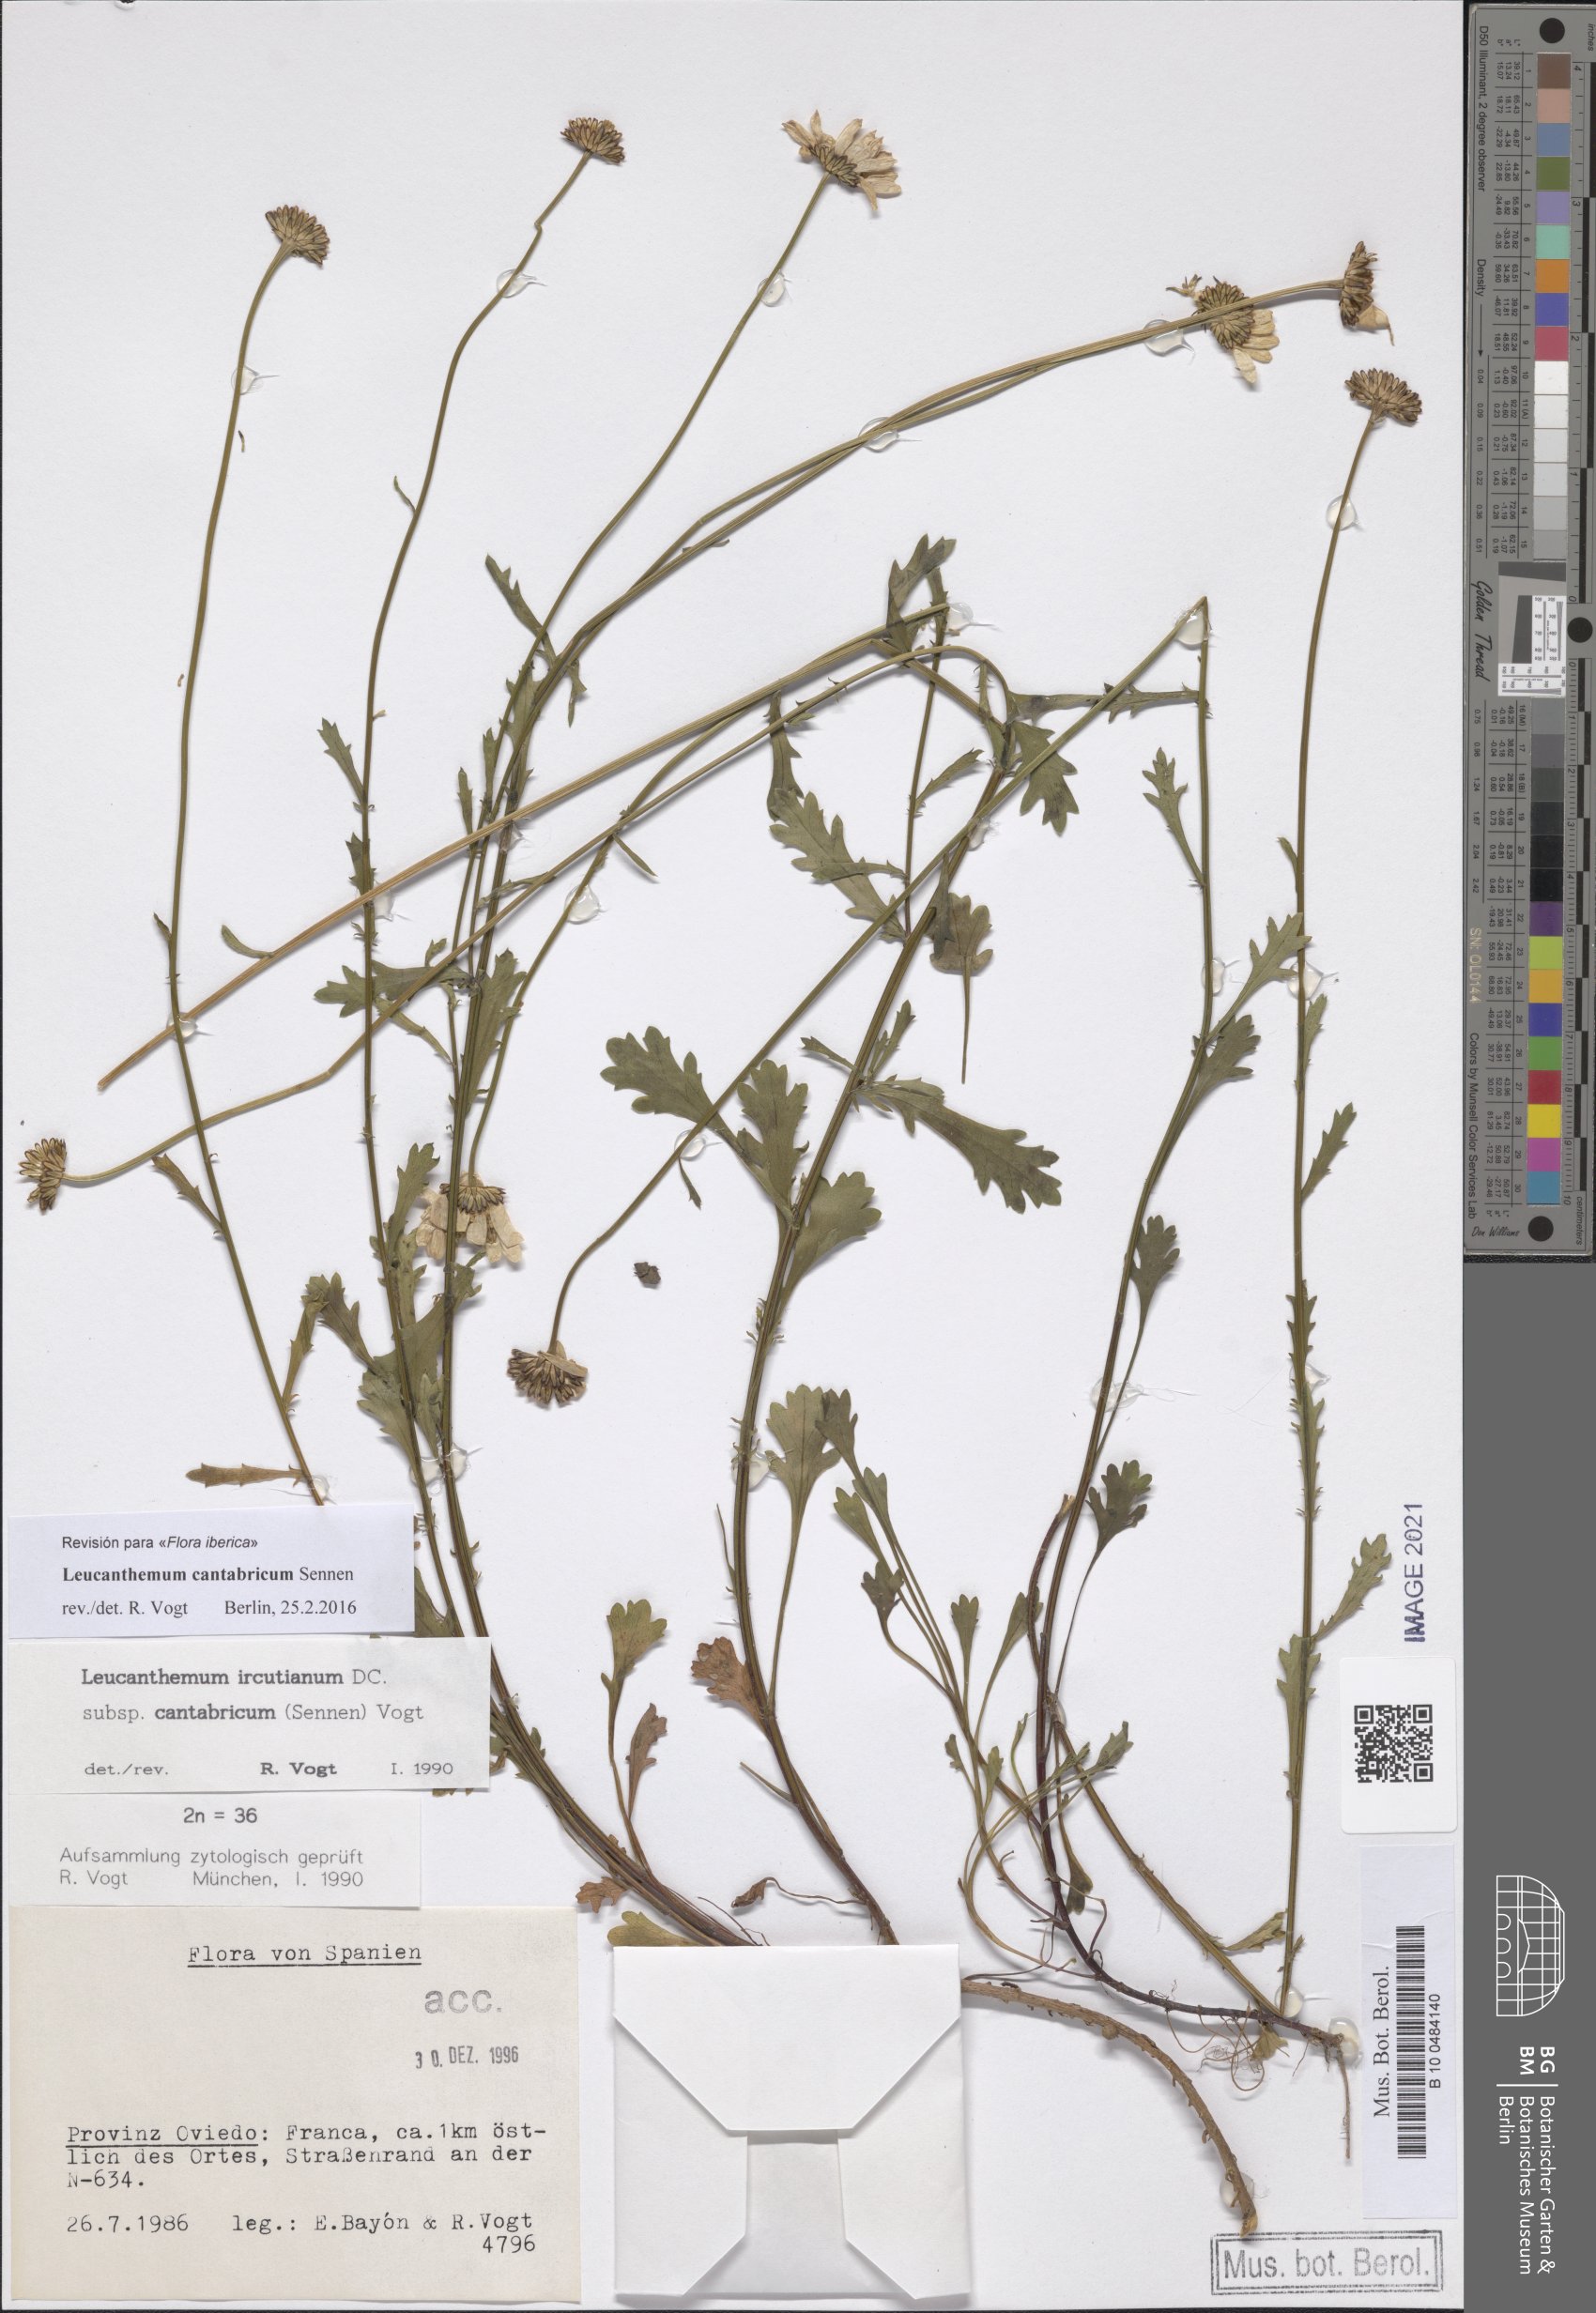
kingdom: Plantae
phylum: Tracheophyta
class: Magnoliopsida
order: Asterales
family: Asteraceae
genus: Leucanthemum
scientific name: Leucanthemum cantabricum
